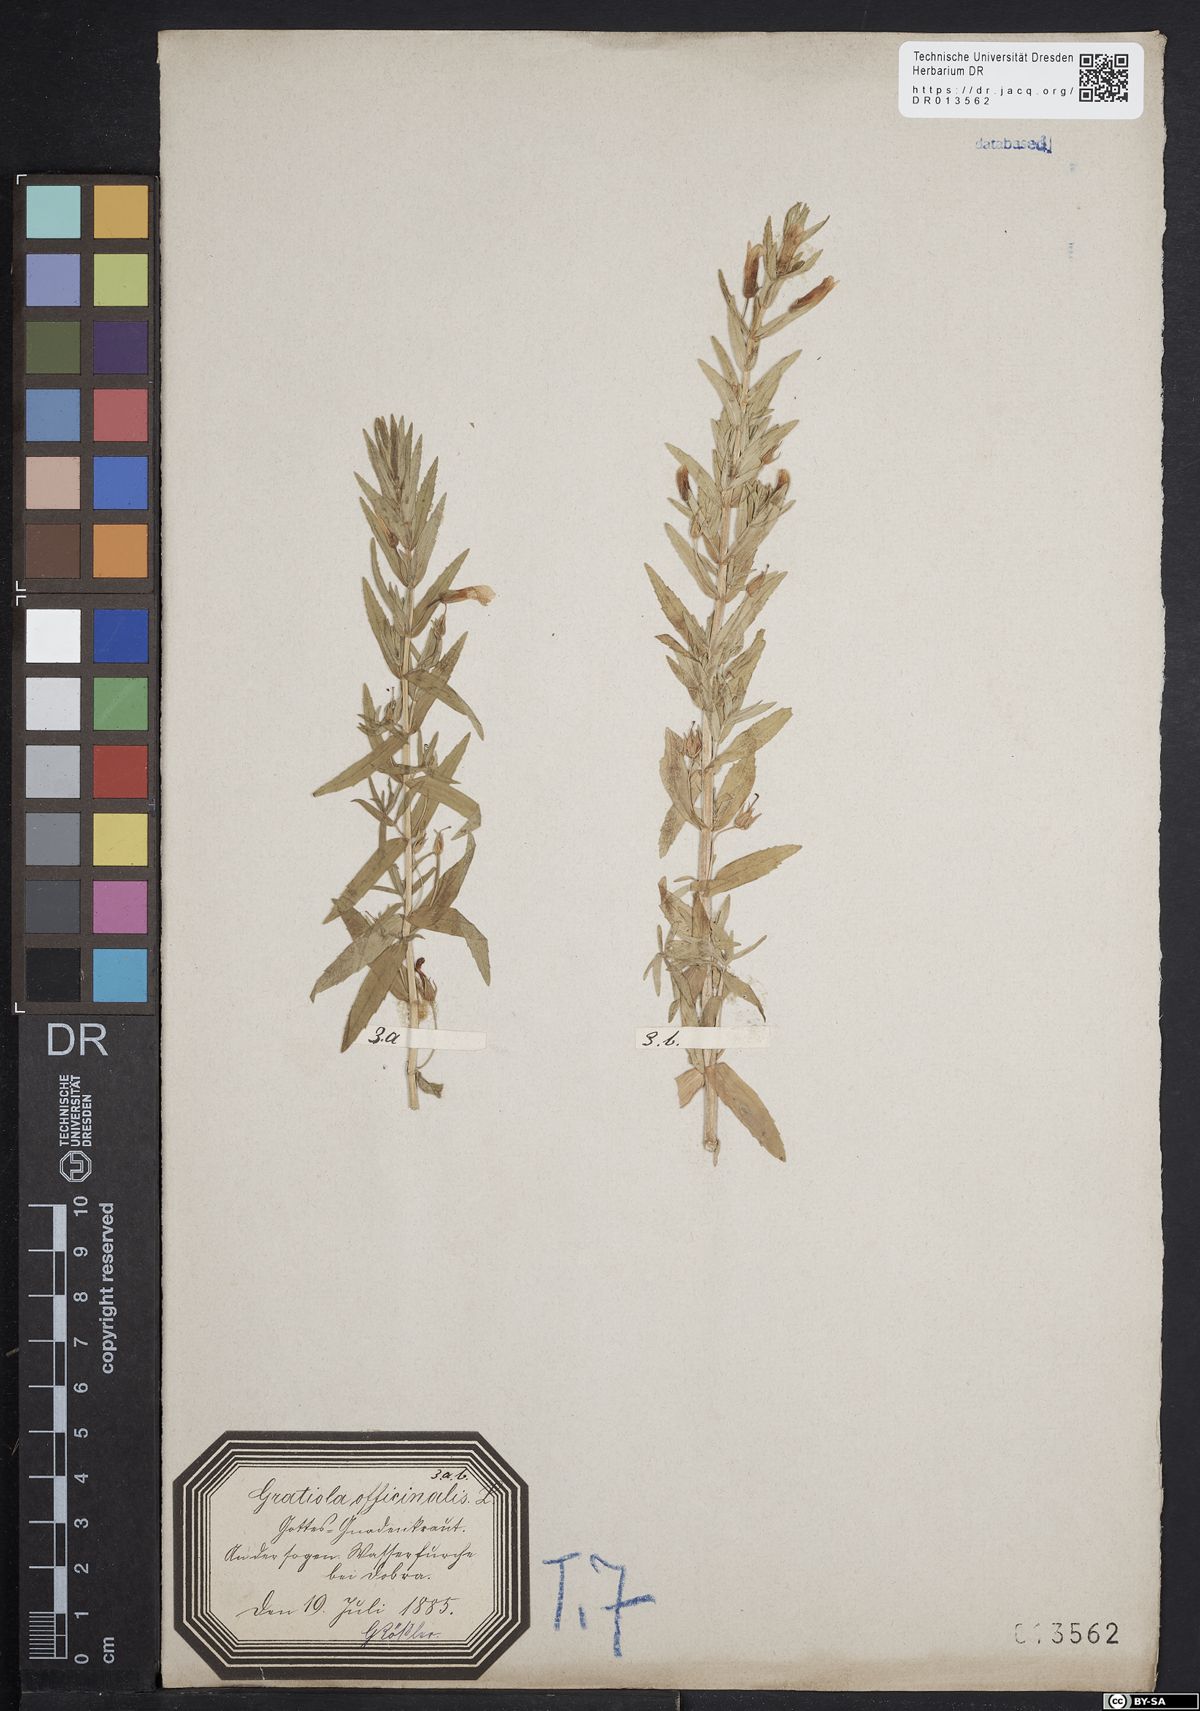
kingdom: Plantae
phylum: Tracheophyta
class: Magnoliopsida
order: Lamiales
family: Plantaginaceae
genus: Gratiola
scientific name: Gratiola officinalis
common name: Gratiola
